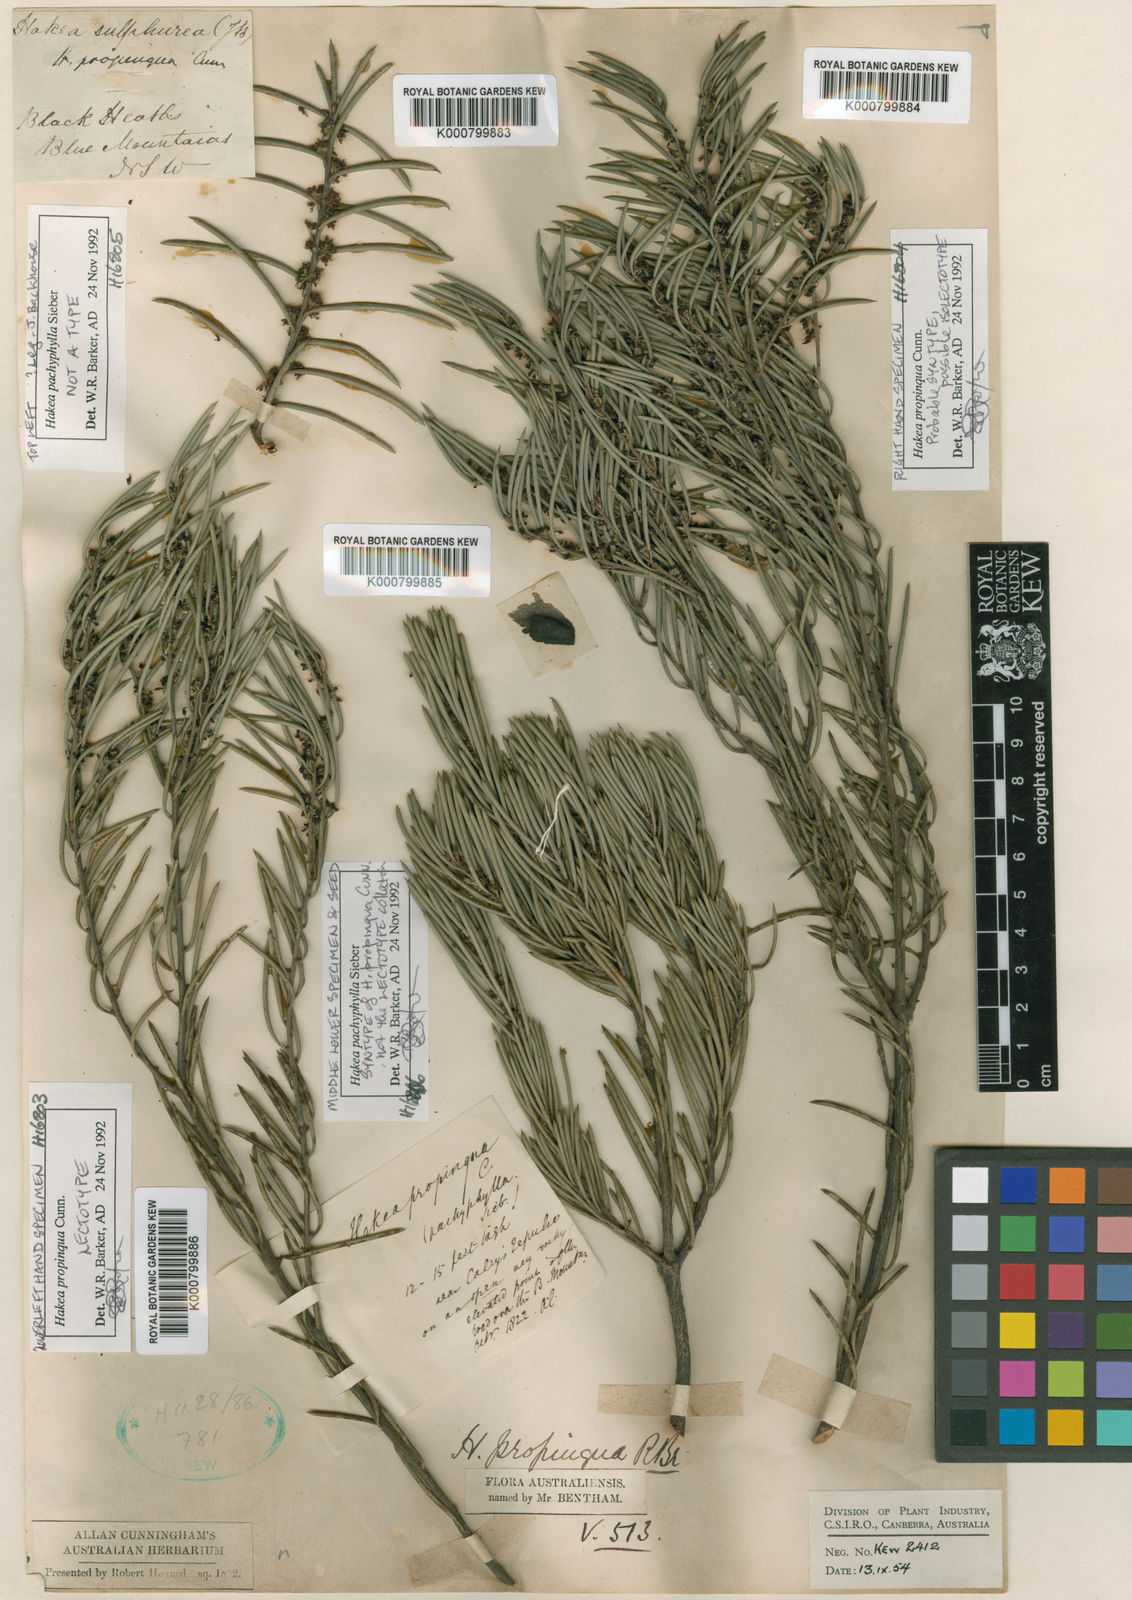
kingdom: Plantae
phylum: Tracheophyta
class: Magnoliopsida
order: Proteales
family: Proteaceae
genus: Hakea
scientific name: Hakea propinqua
